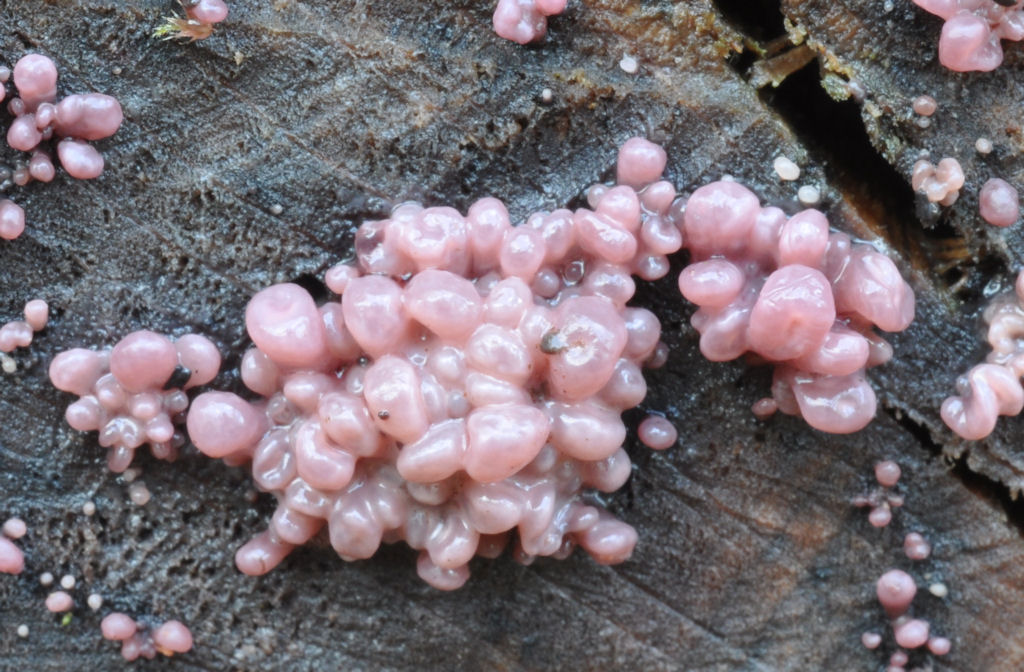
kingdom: Fungi
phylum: Ascomycota
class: Leotiomycetes
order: Helotiales
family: Gelatinodiscaceae
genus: Ascocoryne
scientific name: Ascocoryne sarcoides
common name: rødlilla sejskive
